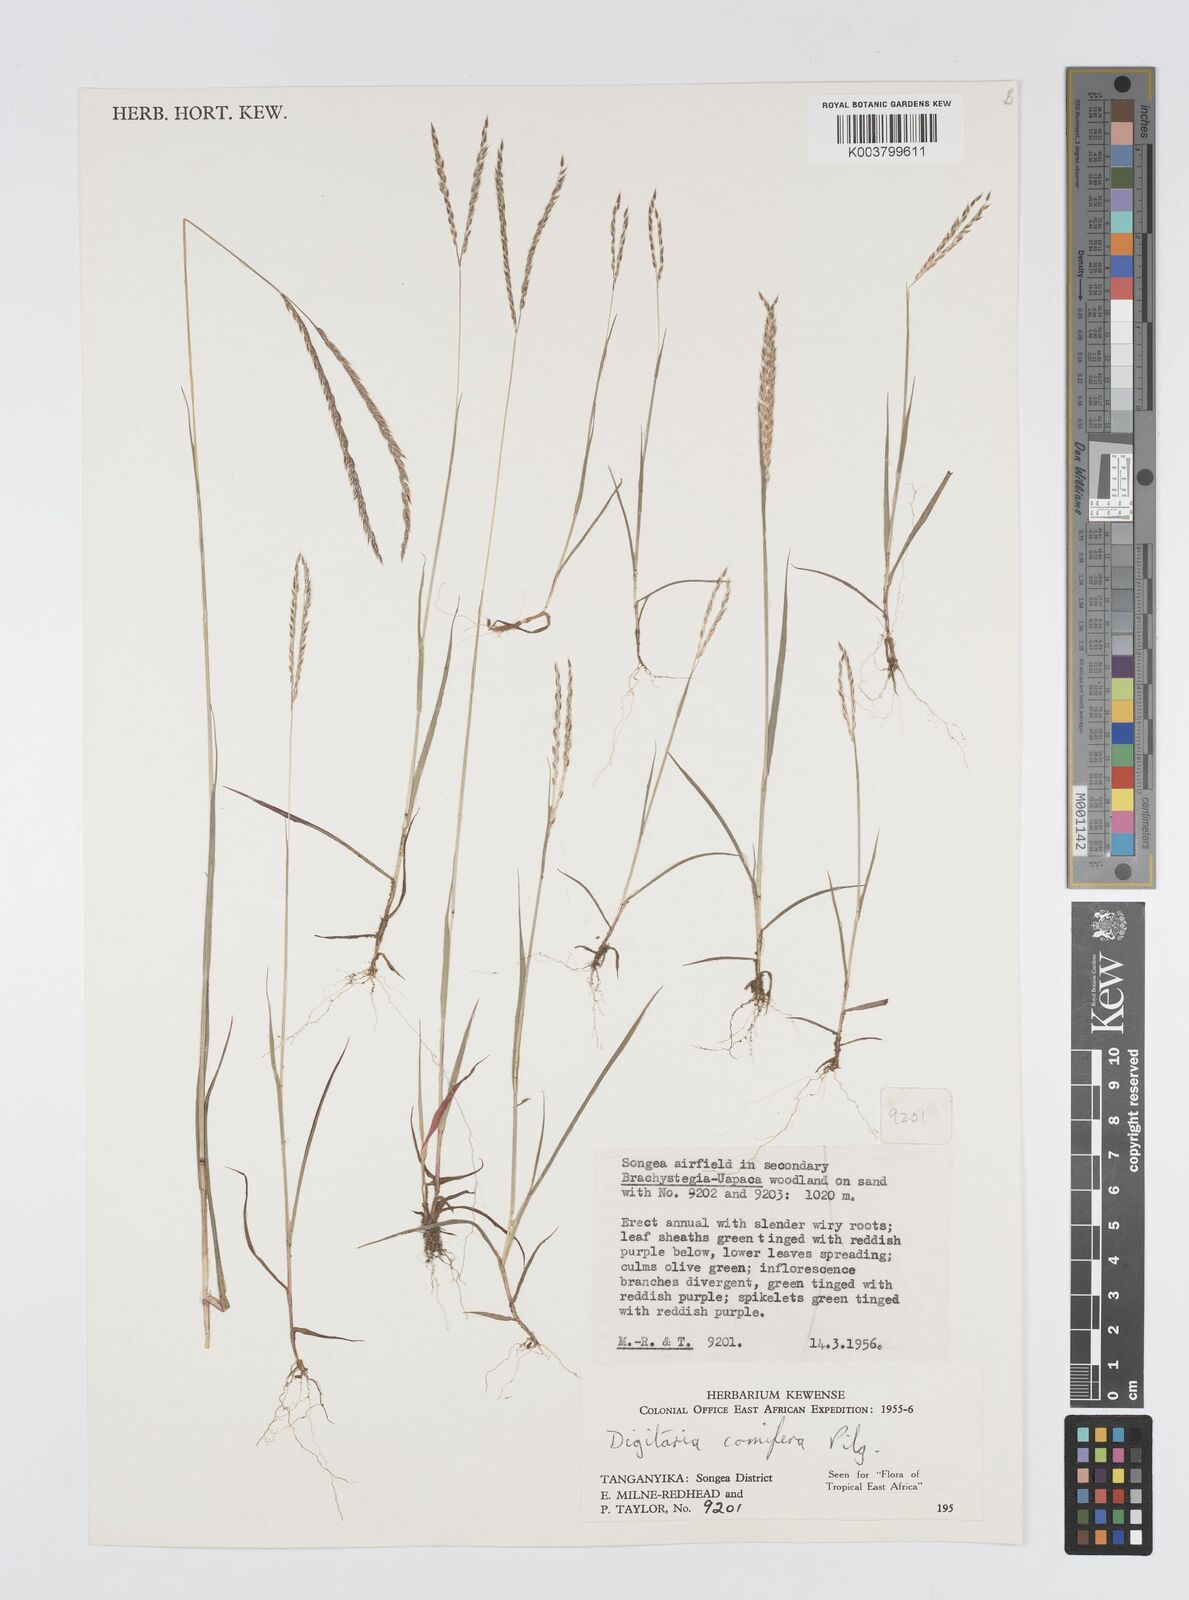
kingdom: Plantae
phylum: Tracheophyta
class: Liliopsida
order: Poales
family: Poaceae
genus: Digitaria
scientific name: Digitaria comifera
